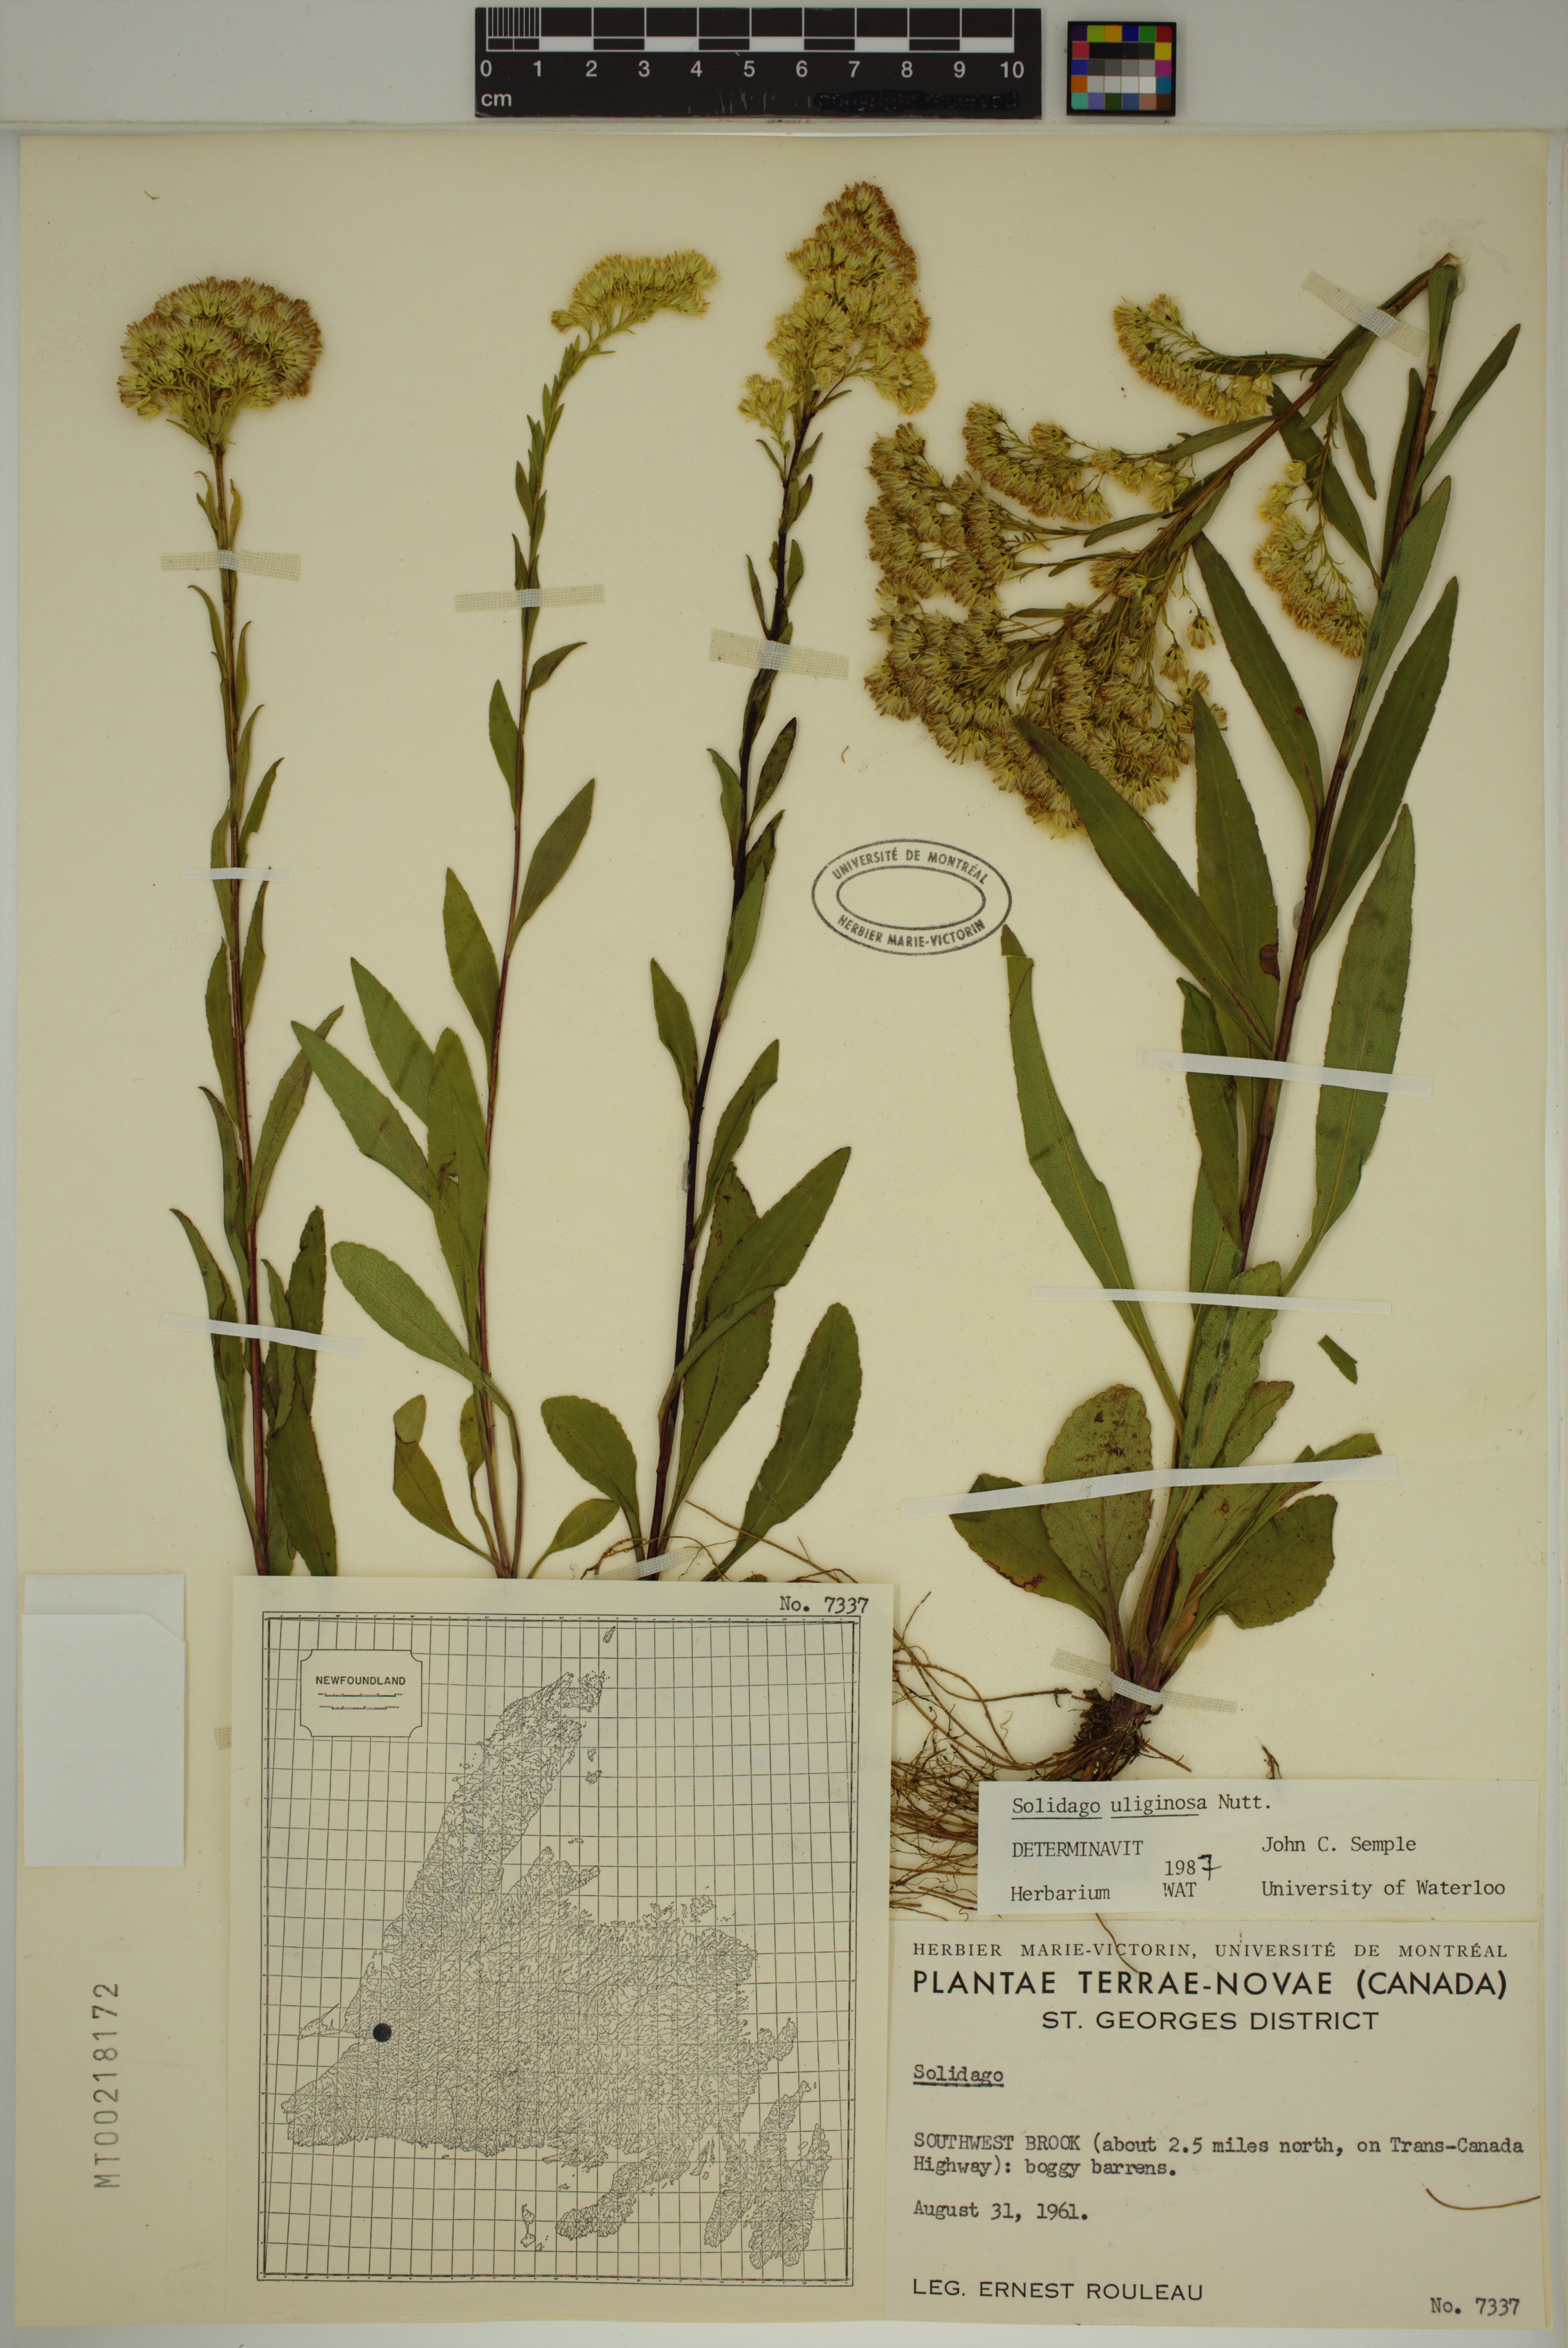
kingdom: Plantae
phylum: Tracheophyta
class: Magnoliopsida
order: Asterales
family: Asteraceae
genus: Solidago
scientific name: Solidago uliginosa
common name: Bog goldenrod
